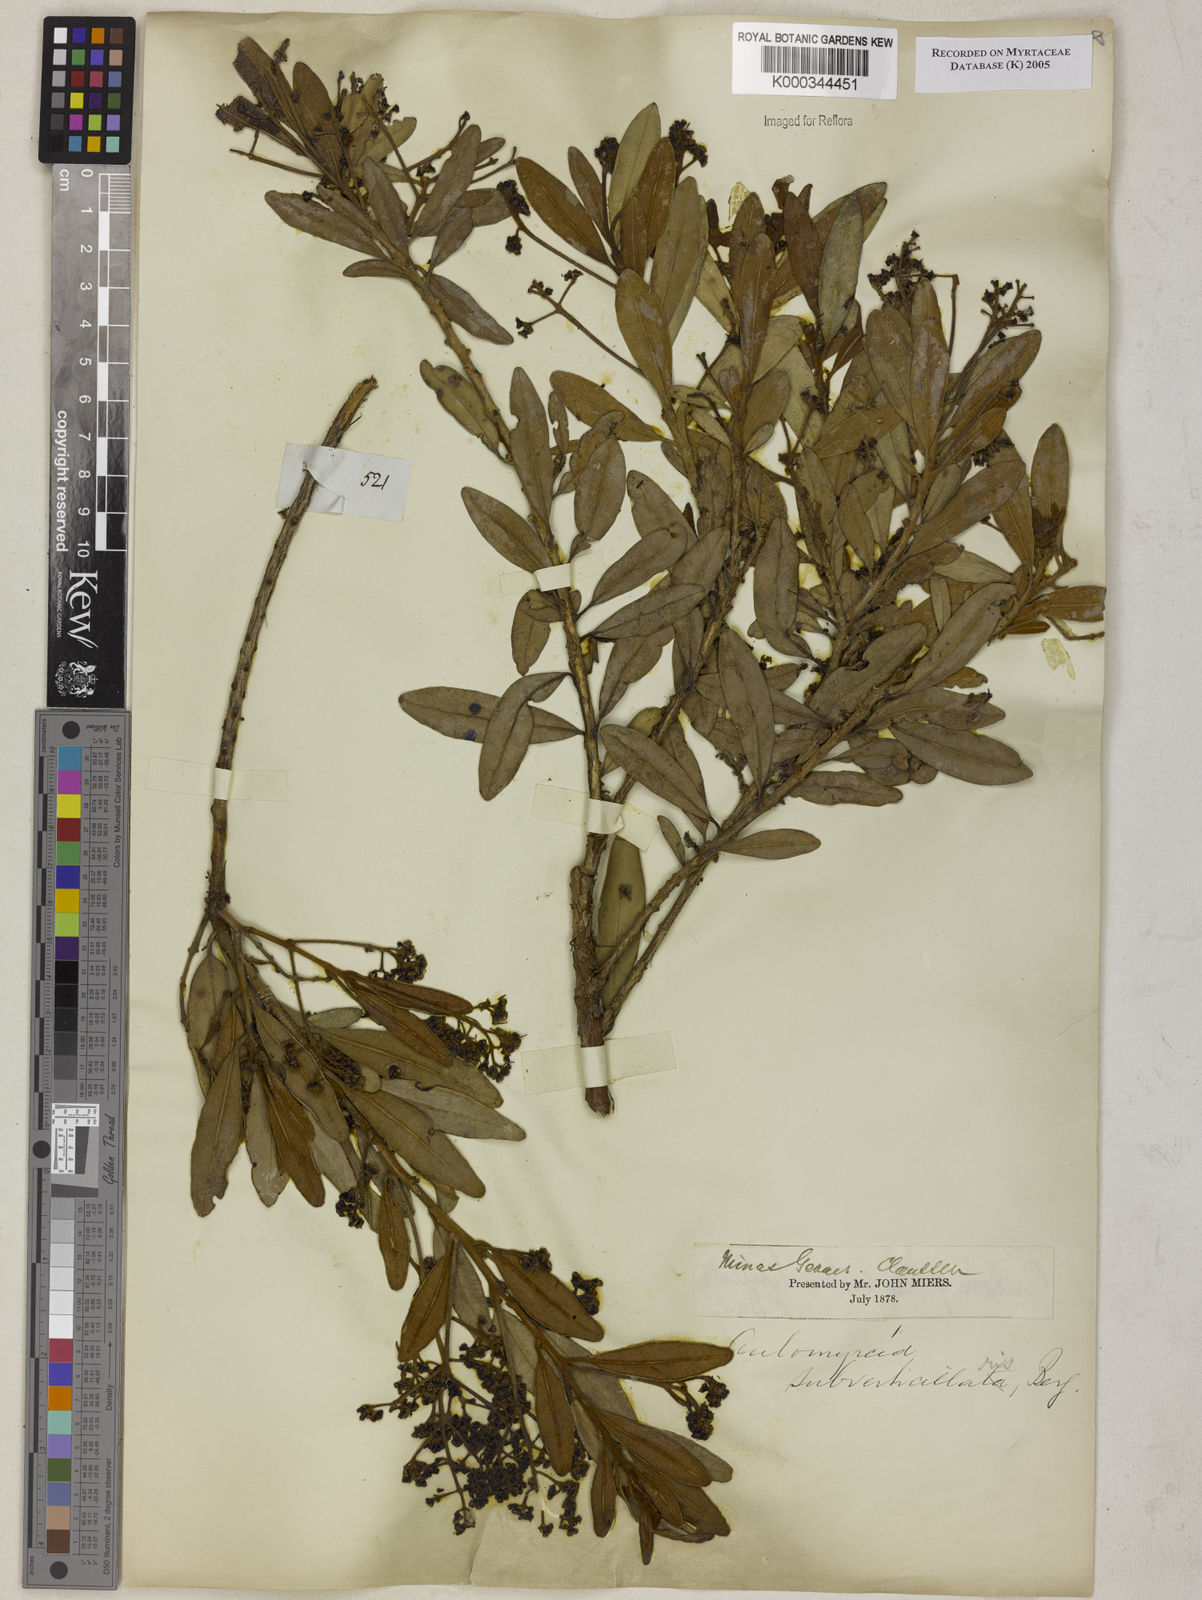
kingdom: Plantae
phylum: Tracheophyta
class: Magnoliopsida
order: Myrtales
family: Myrtaceae
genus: Myrcia
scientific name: Myrcia
